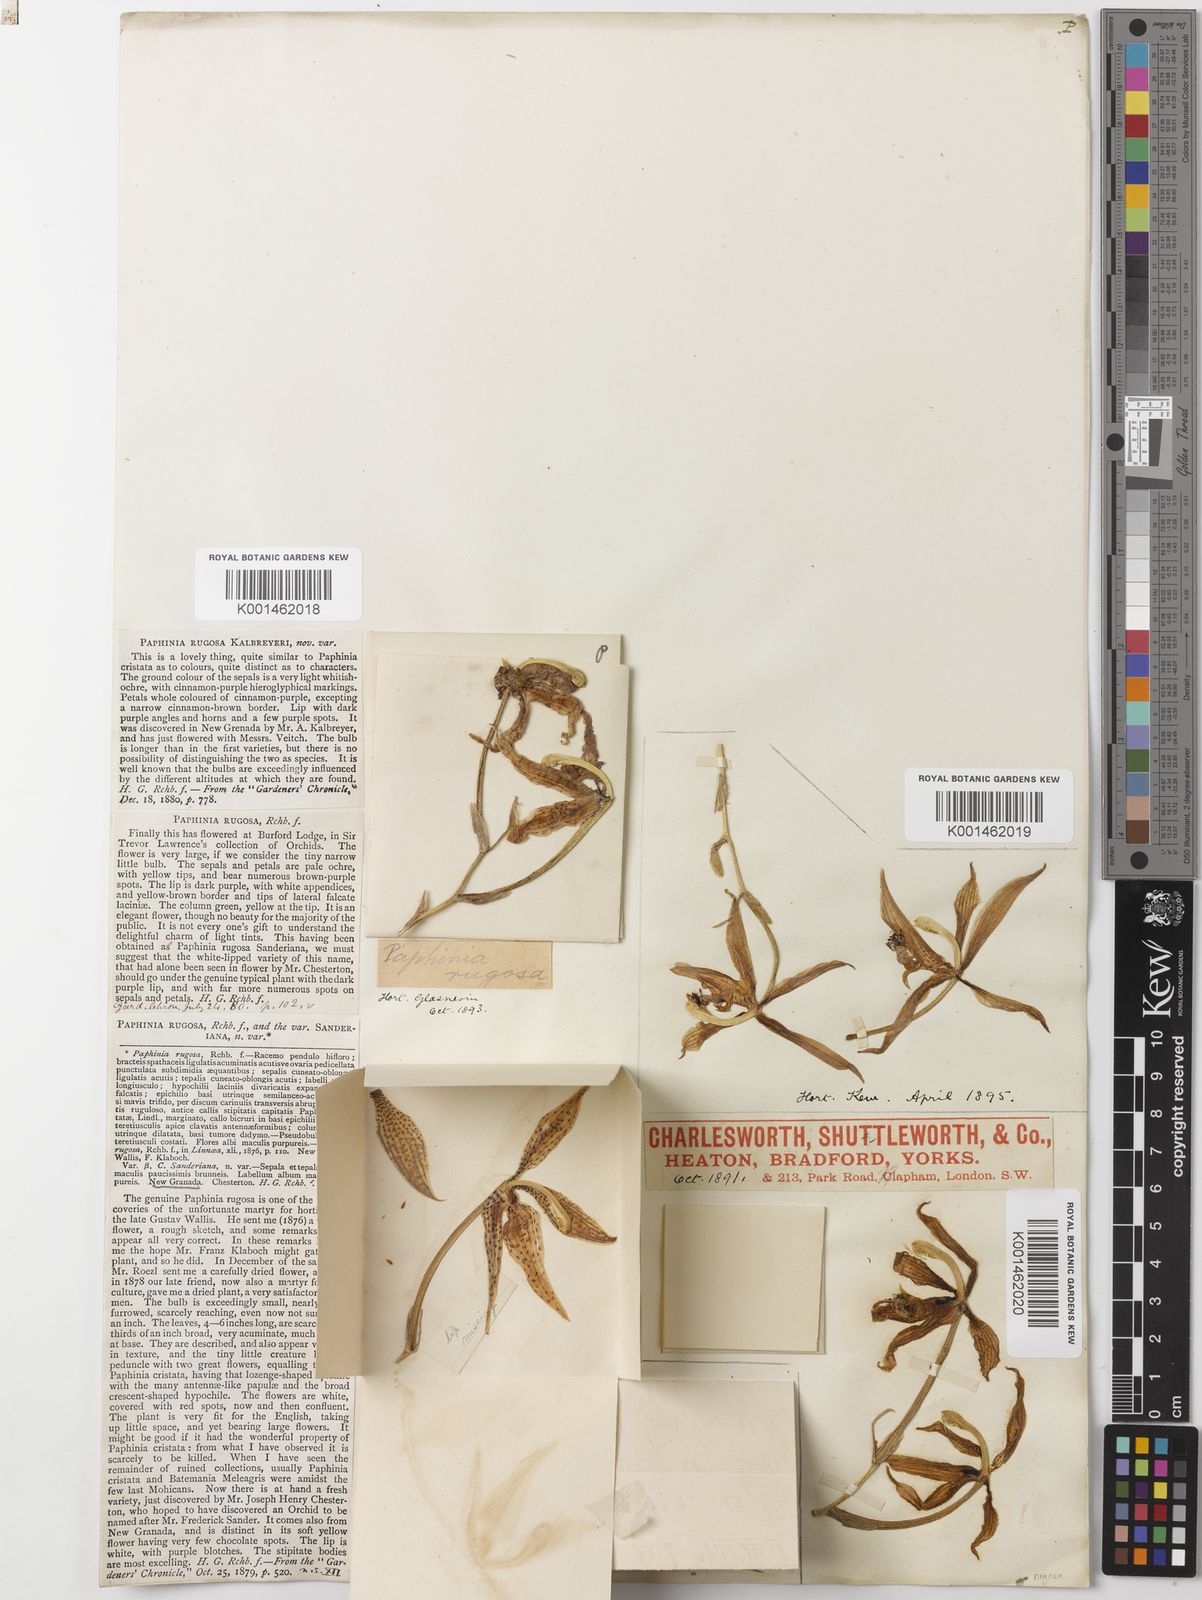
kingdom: Plantae
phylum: Tracheophyta
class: Liliopsida
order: Asparagales
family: Orchidaceae
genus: Paphinia
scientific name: Paphinia rugosa
